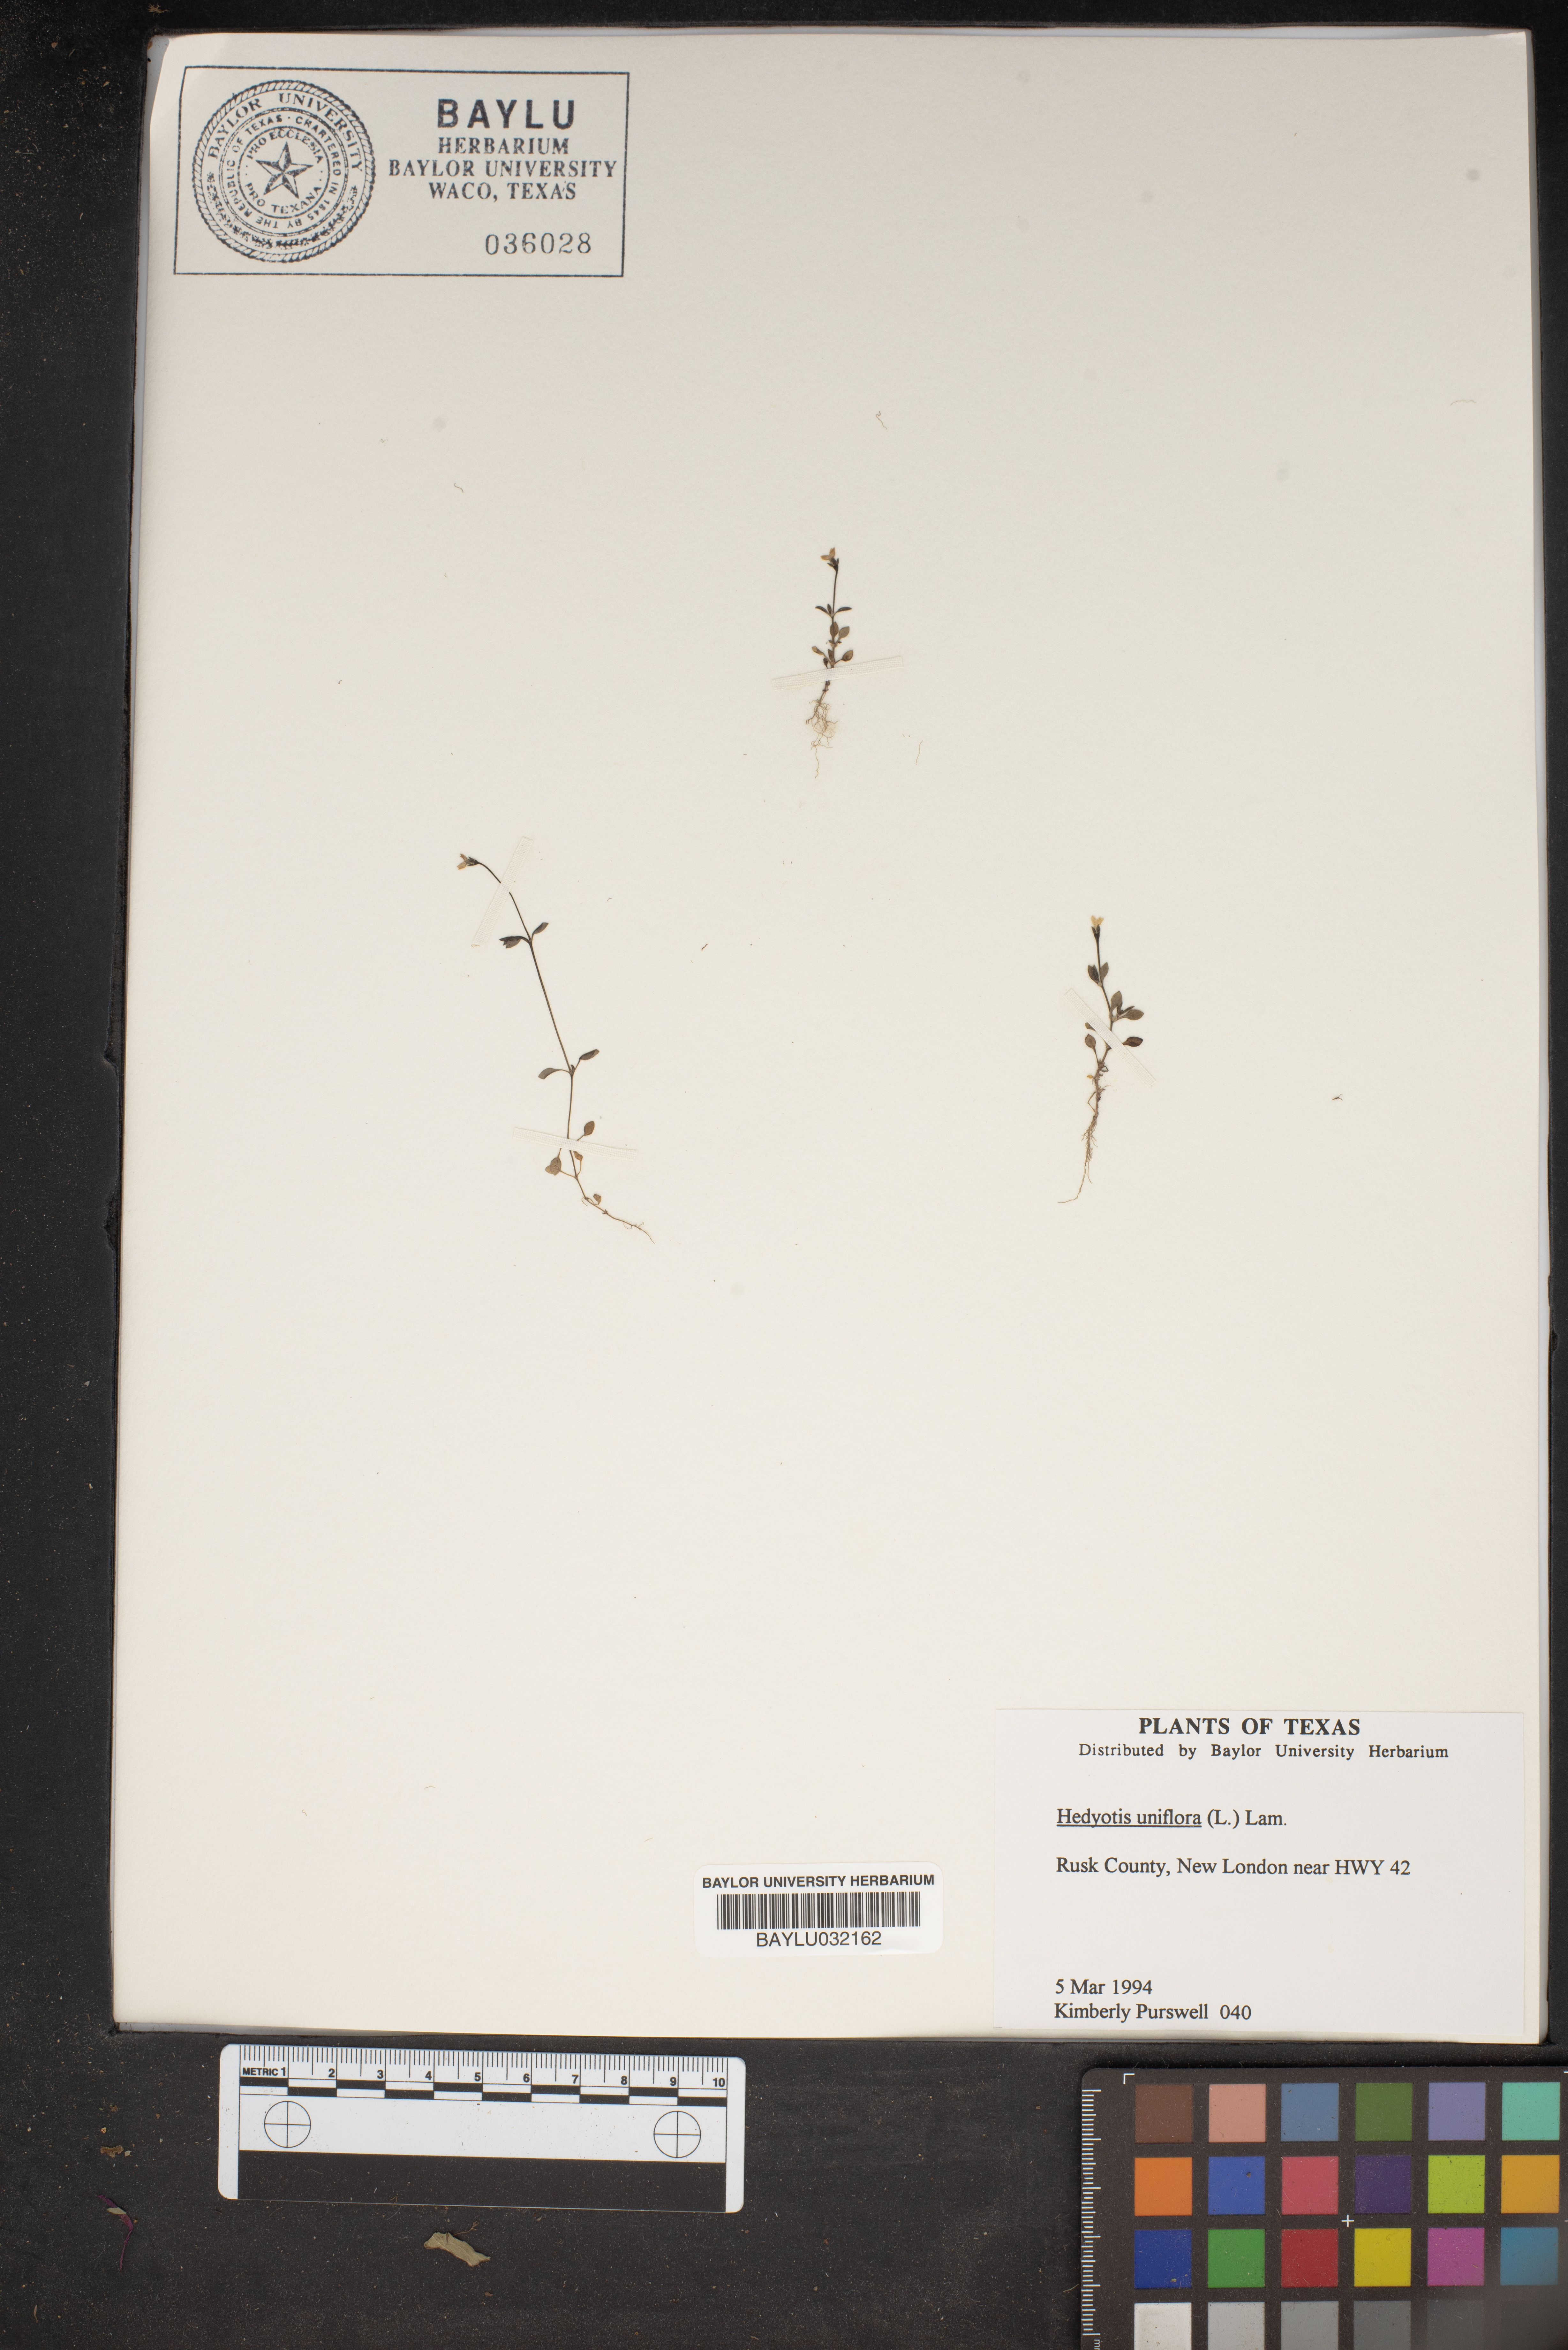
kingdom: Plantae
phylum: Tracheophyta
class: Magnoliopsida
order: Gentianales
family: Rubiaceae
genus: Edrastima
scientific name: Edrastima uniflora
